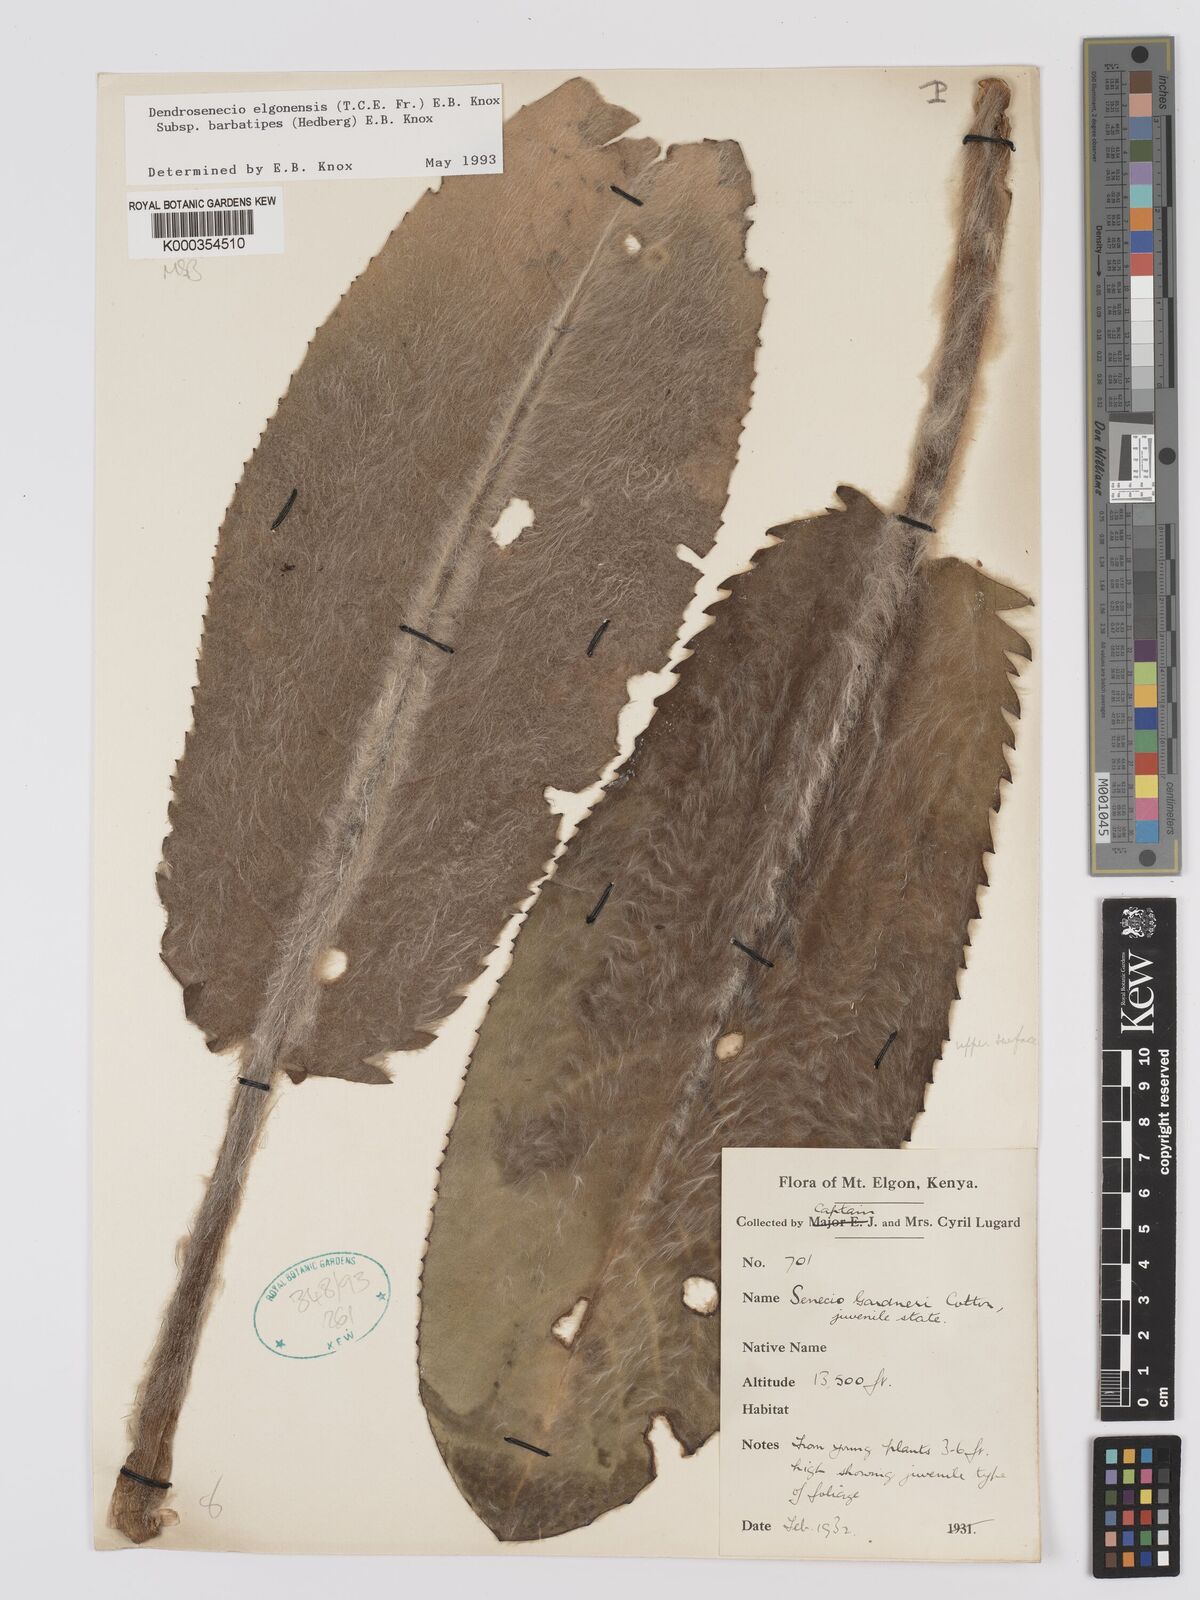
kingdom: Plantae
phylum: Tracheophyta
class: Magnoliopsida
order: Asterales
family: Asteraceae
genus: Dendrosenecio
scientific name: Dendrosenecio elgonensis
